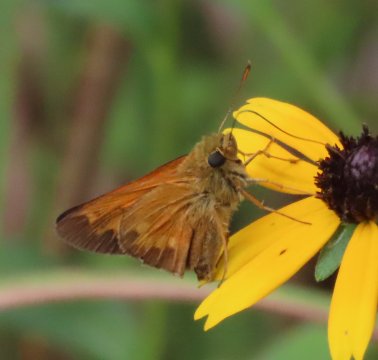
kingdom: Animalia
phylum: Arthropoda
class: Insecta
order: Lepidoptera
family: Hesperiidae
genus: Poanes
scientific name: Poanes yehl
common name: Yehl Skipper
